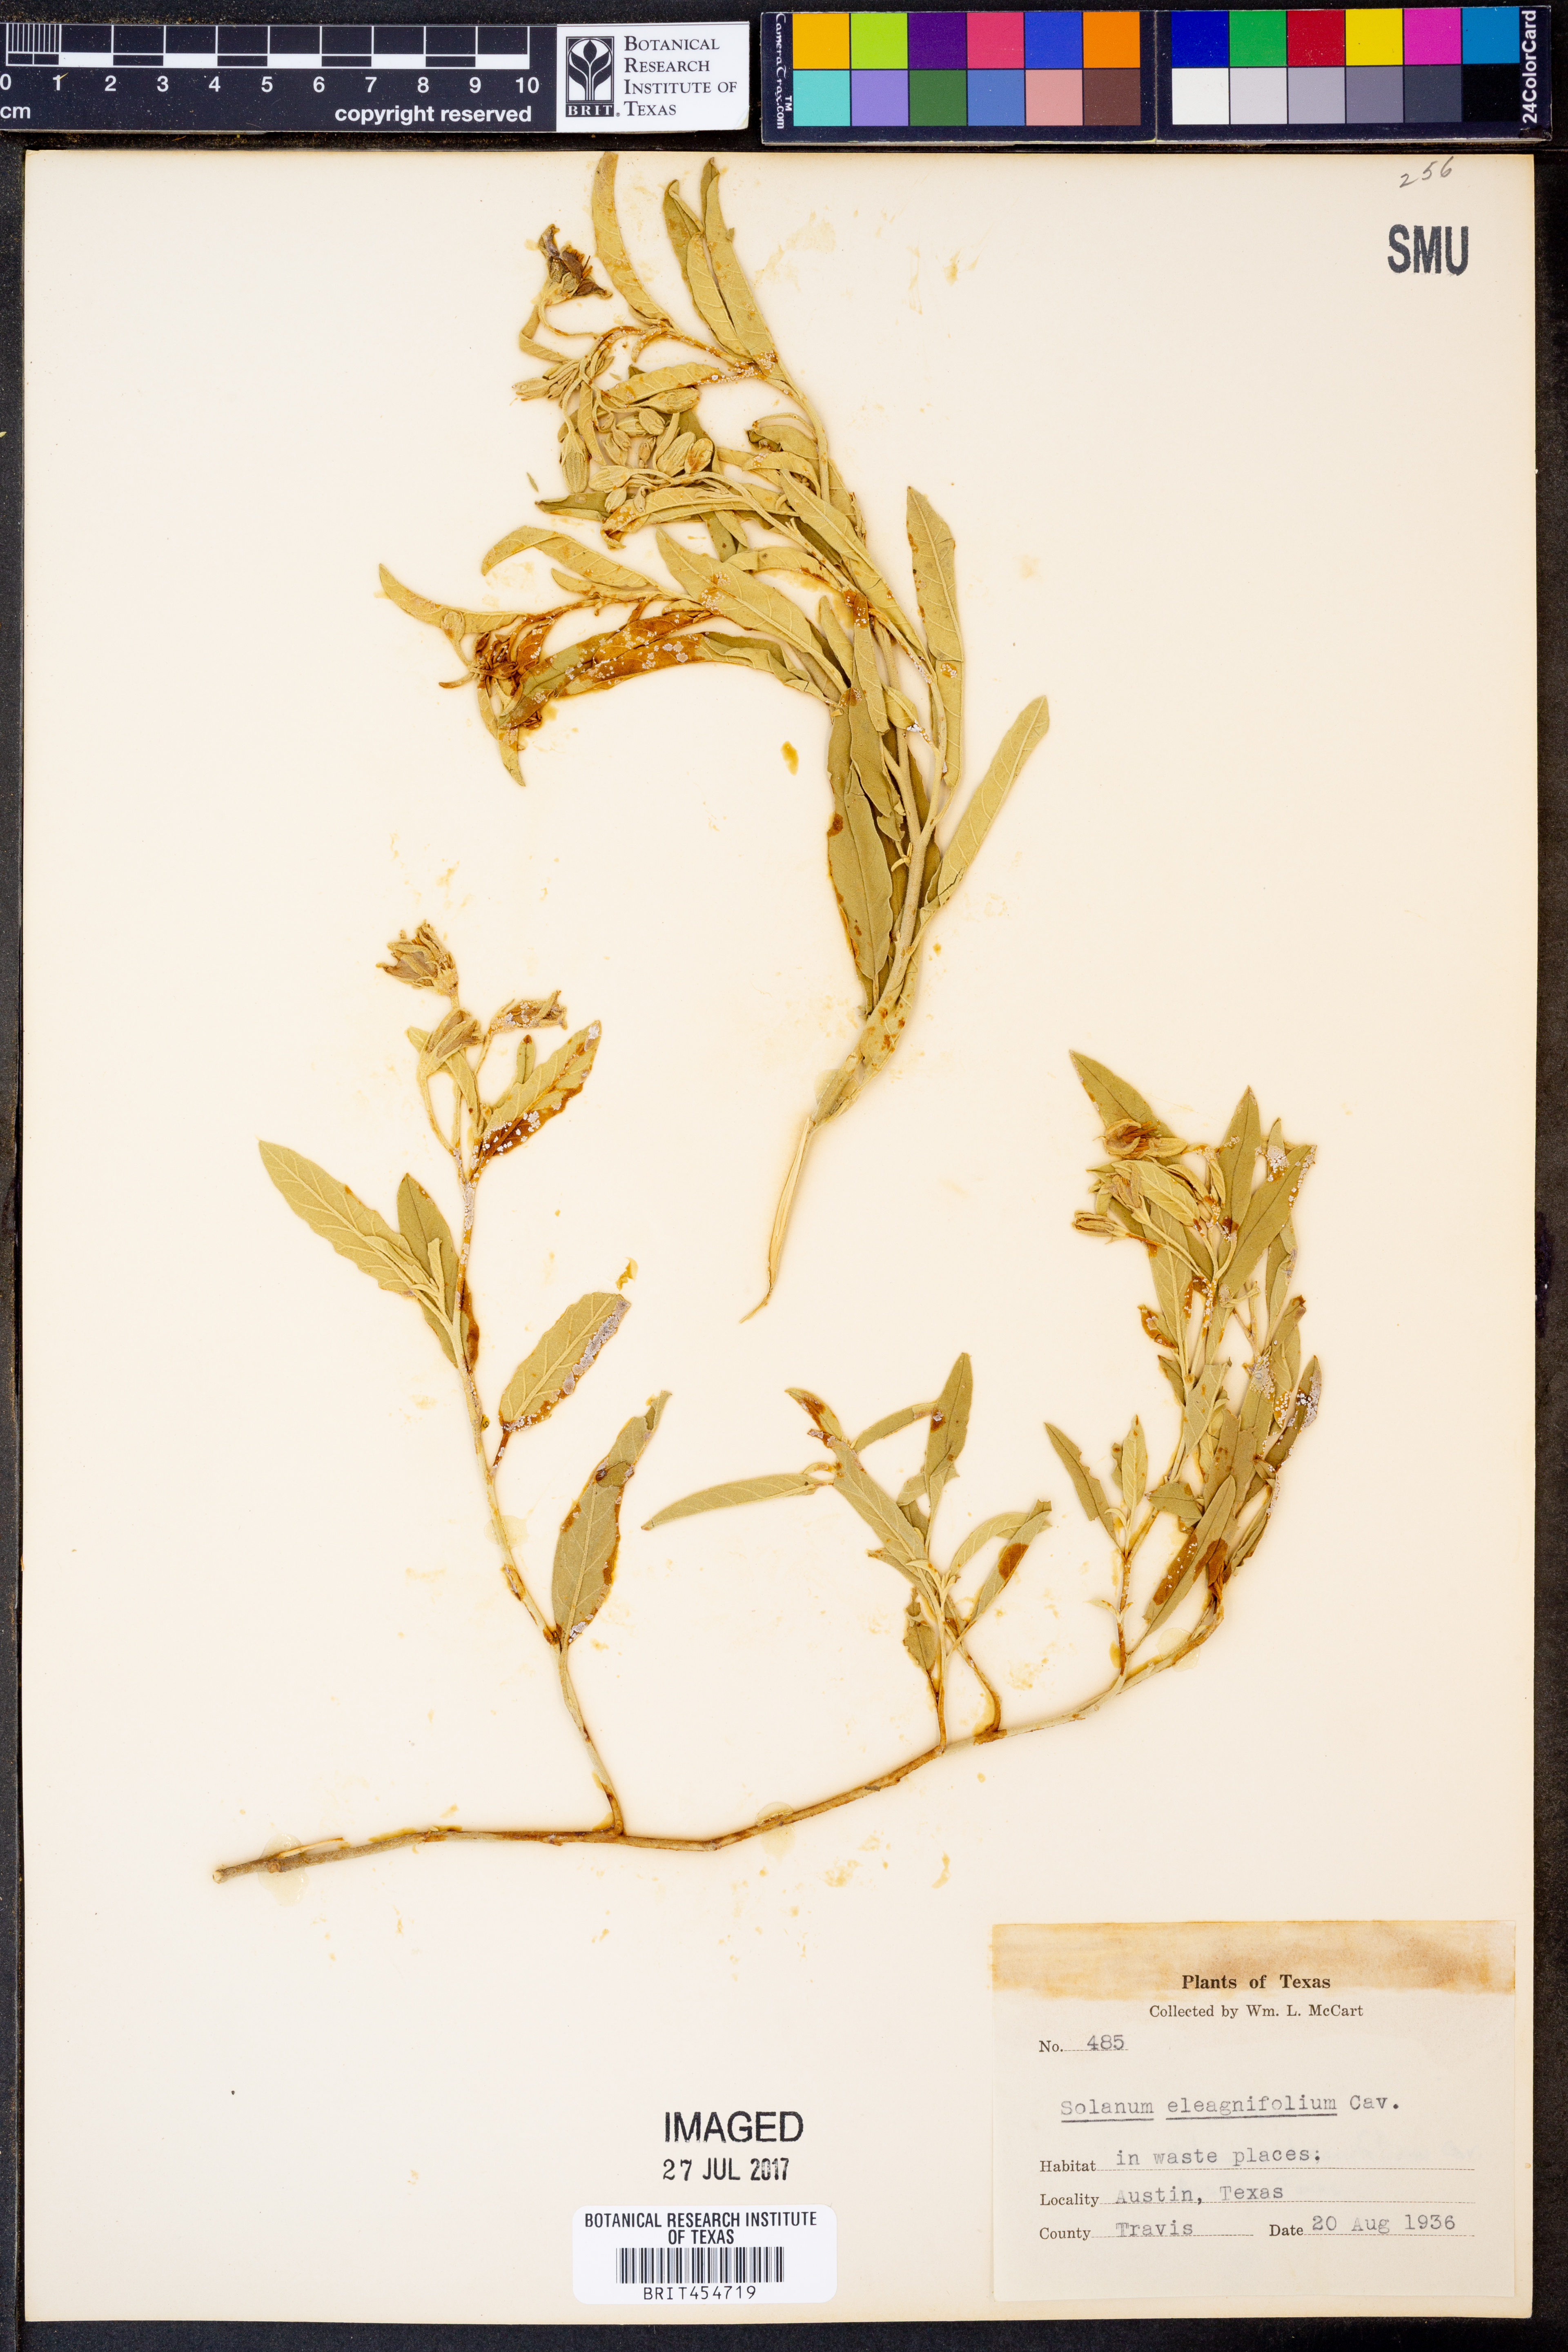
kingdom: Plantae
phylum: Tracheophyta
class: Magnoliopsida
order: Solanales
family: Solanaceae
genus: Solanum
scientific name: Solanum elaeagnifolium
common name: Silverleaf nightshade
